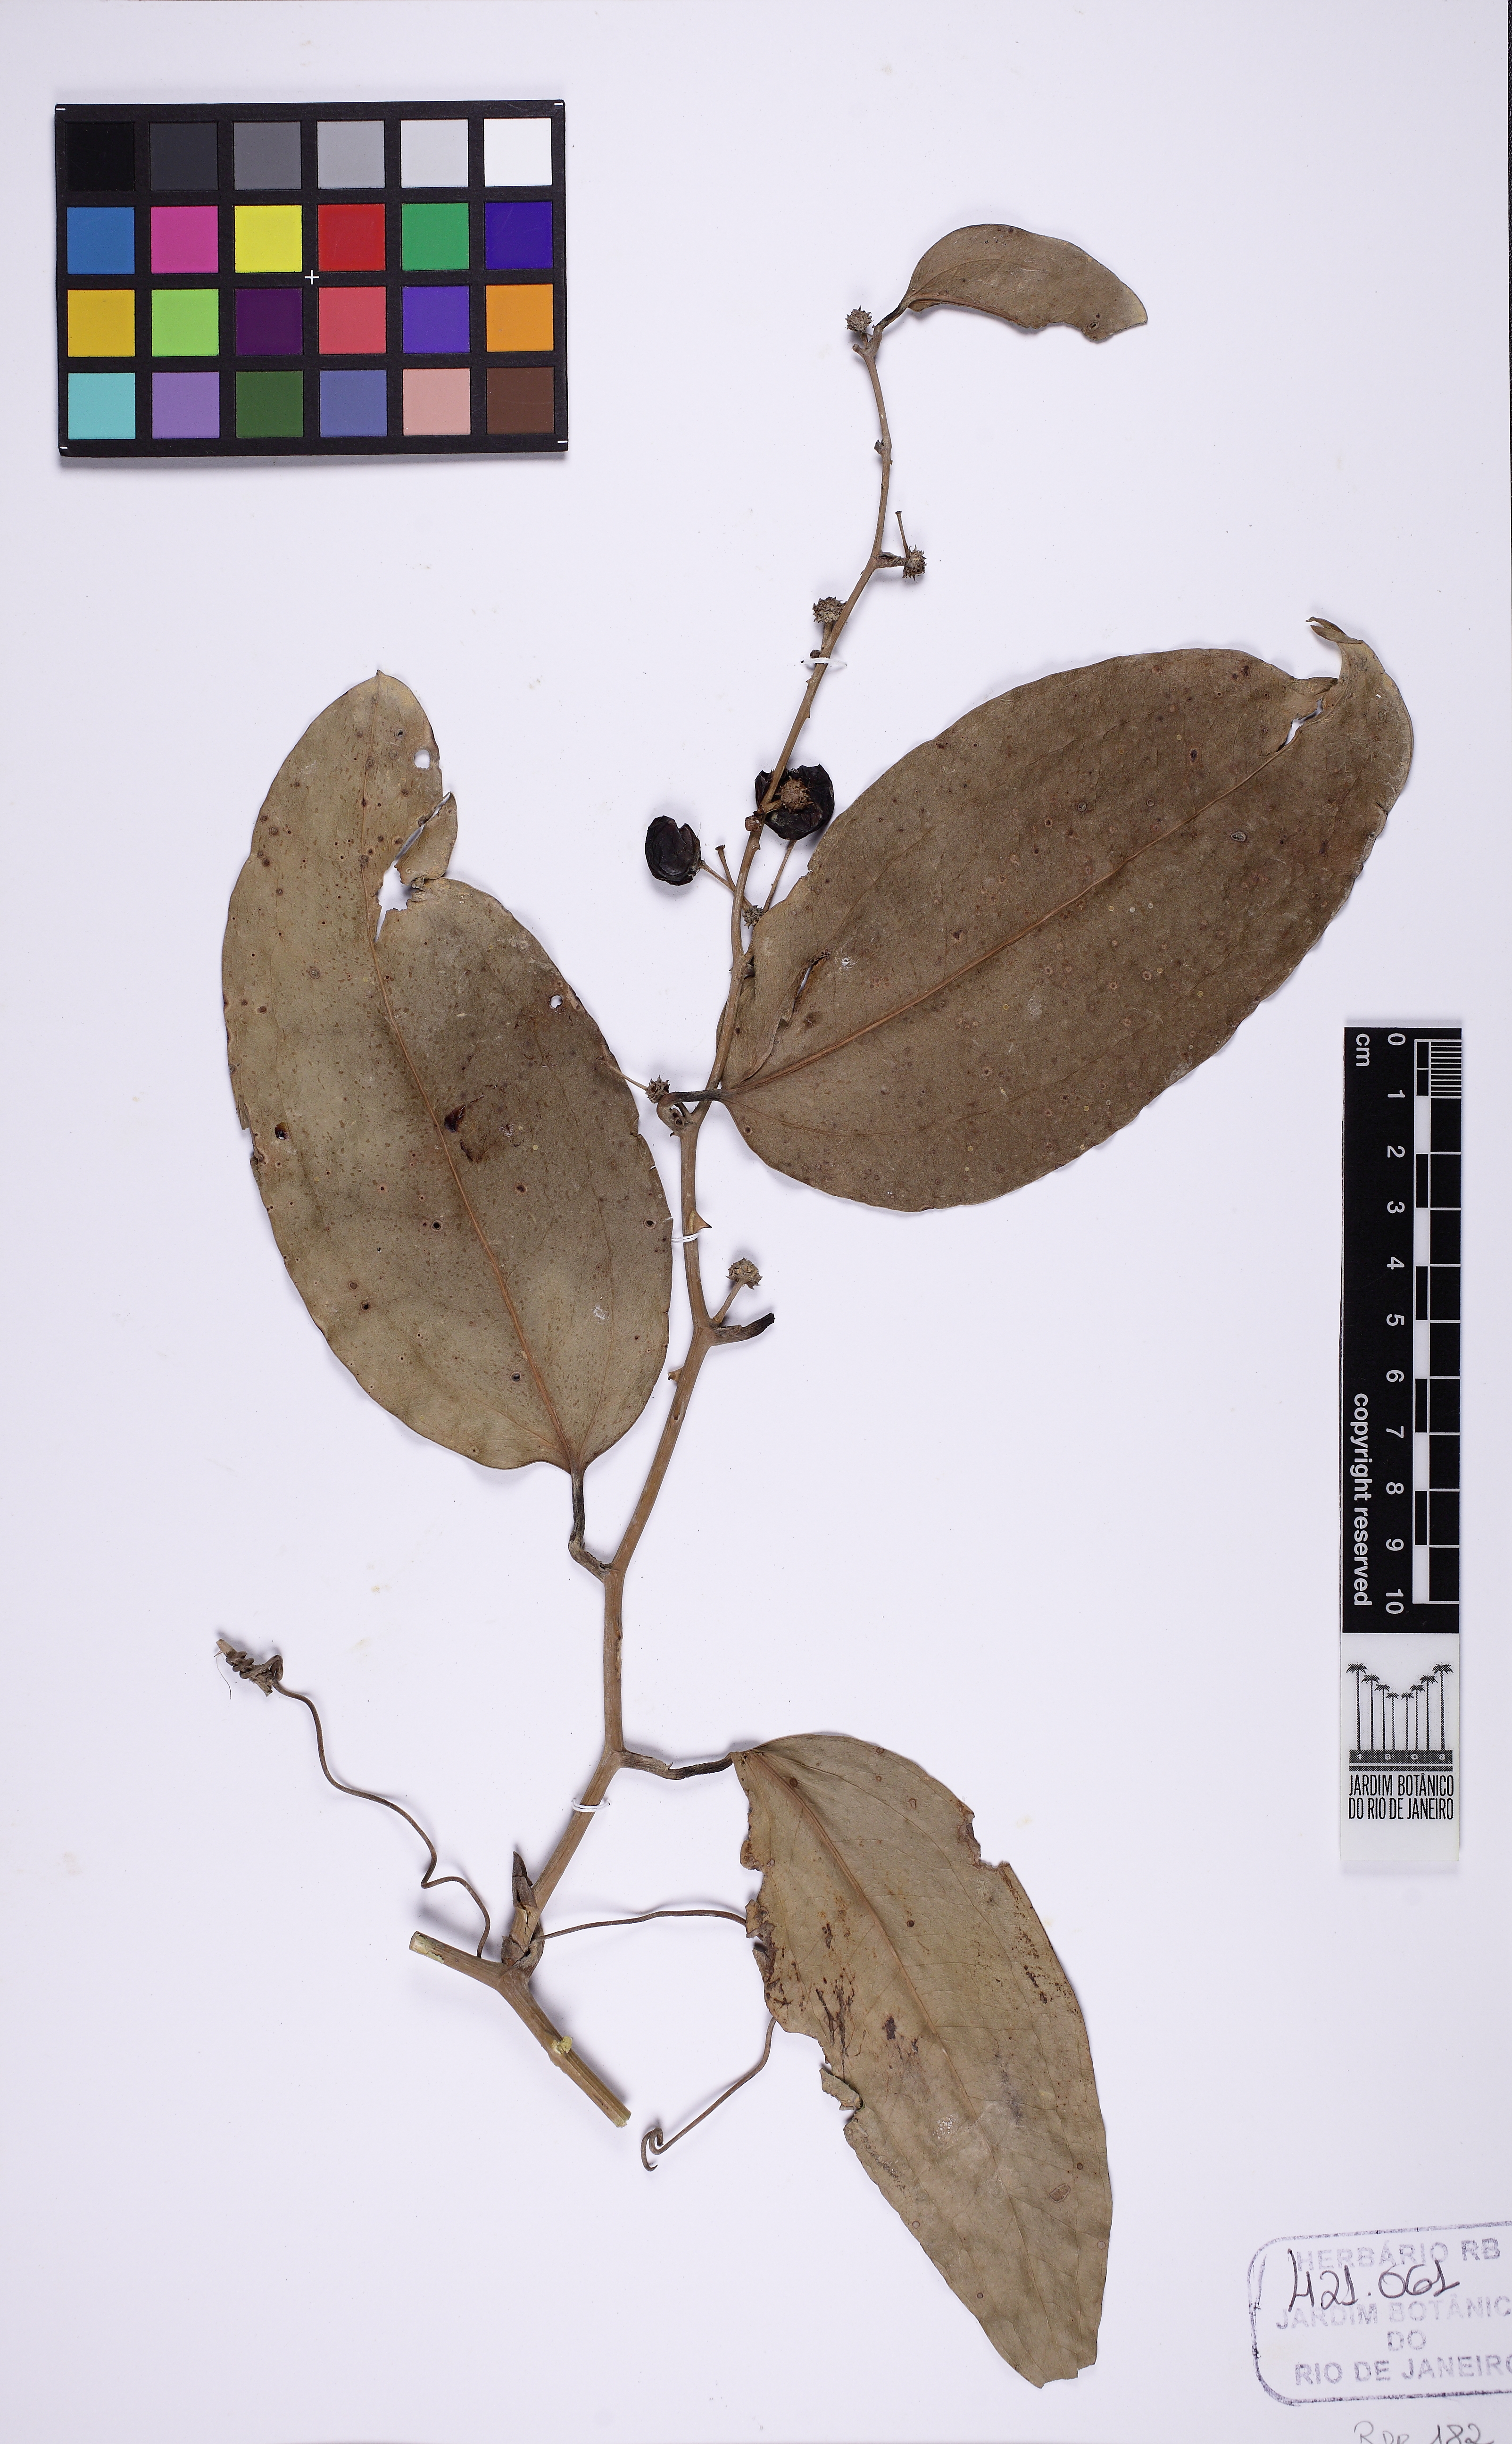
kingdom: Plantae
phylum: Tracheophyta
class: Liliopsida
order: Liliales
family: Smilacaceae
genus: Smilax
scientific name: Smilax
